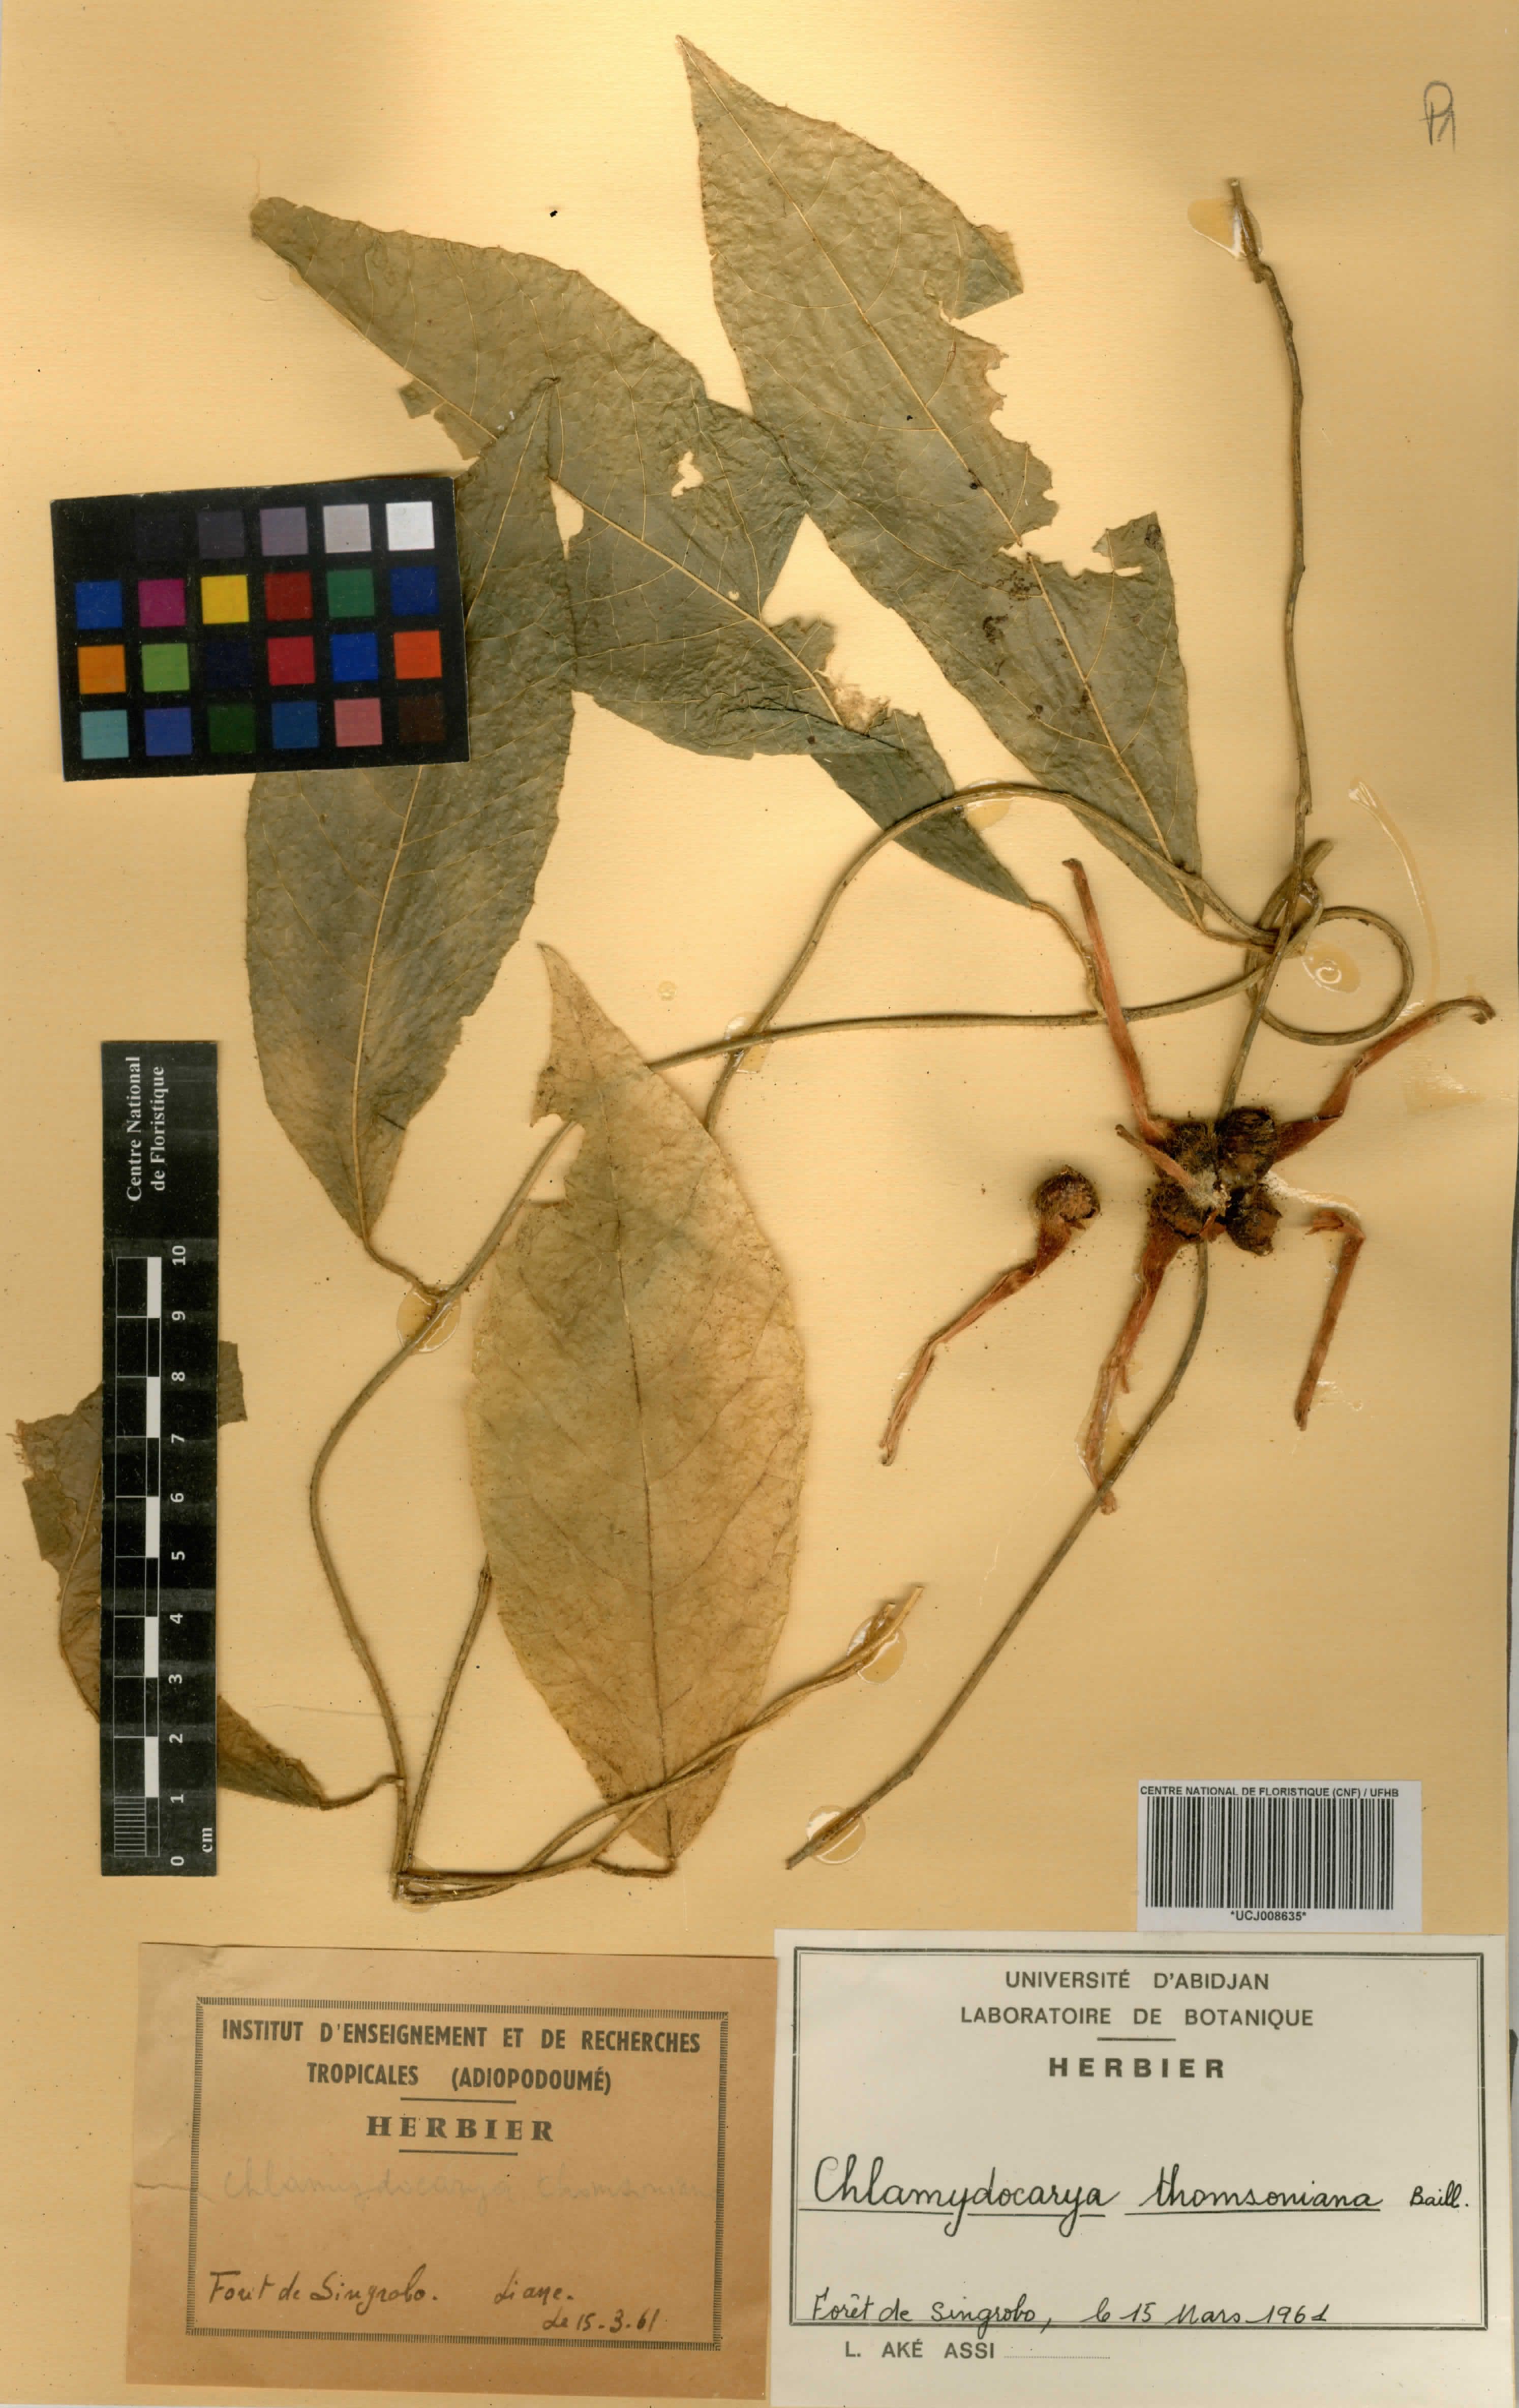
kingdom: Plantae
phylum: Tracheophyta
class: Magnoliopsida
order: Icacinales
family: Icacinaceae
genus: Pyrenacantha
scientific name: Pyrenacantha thomsoniana
